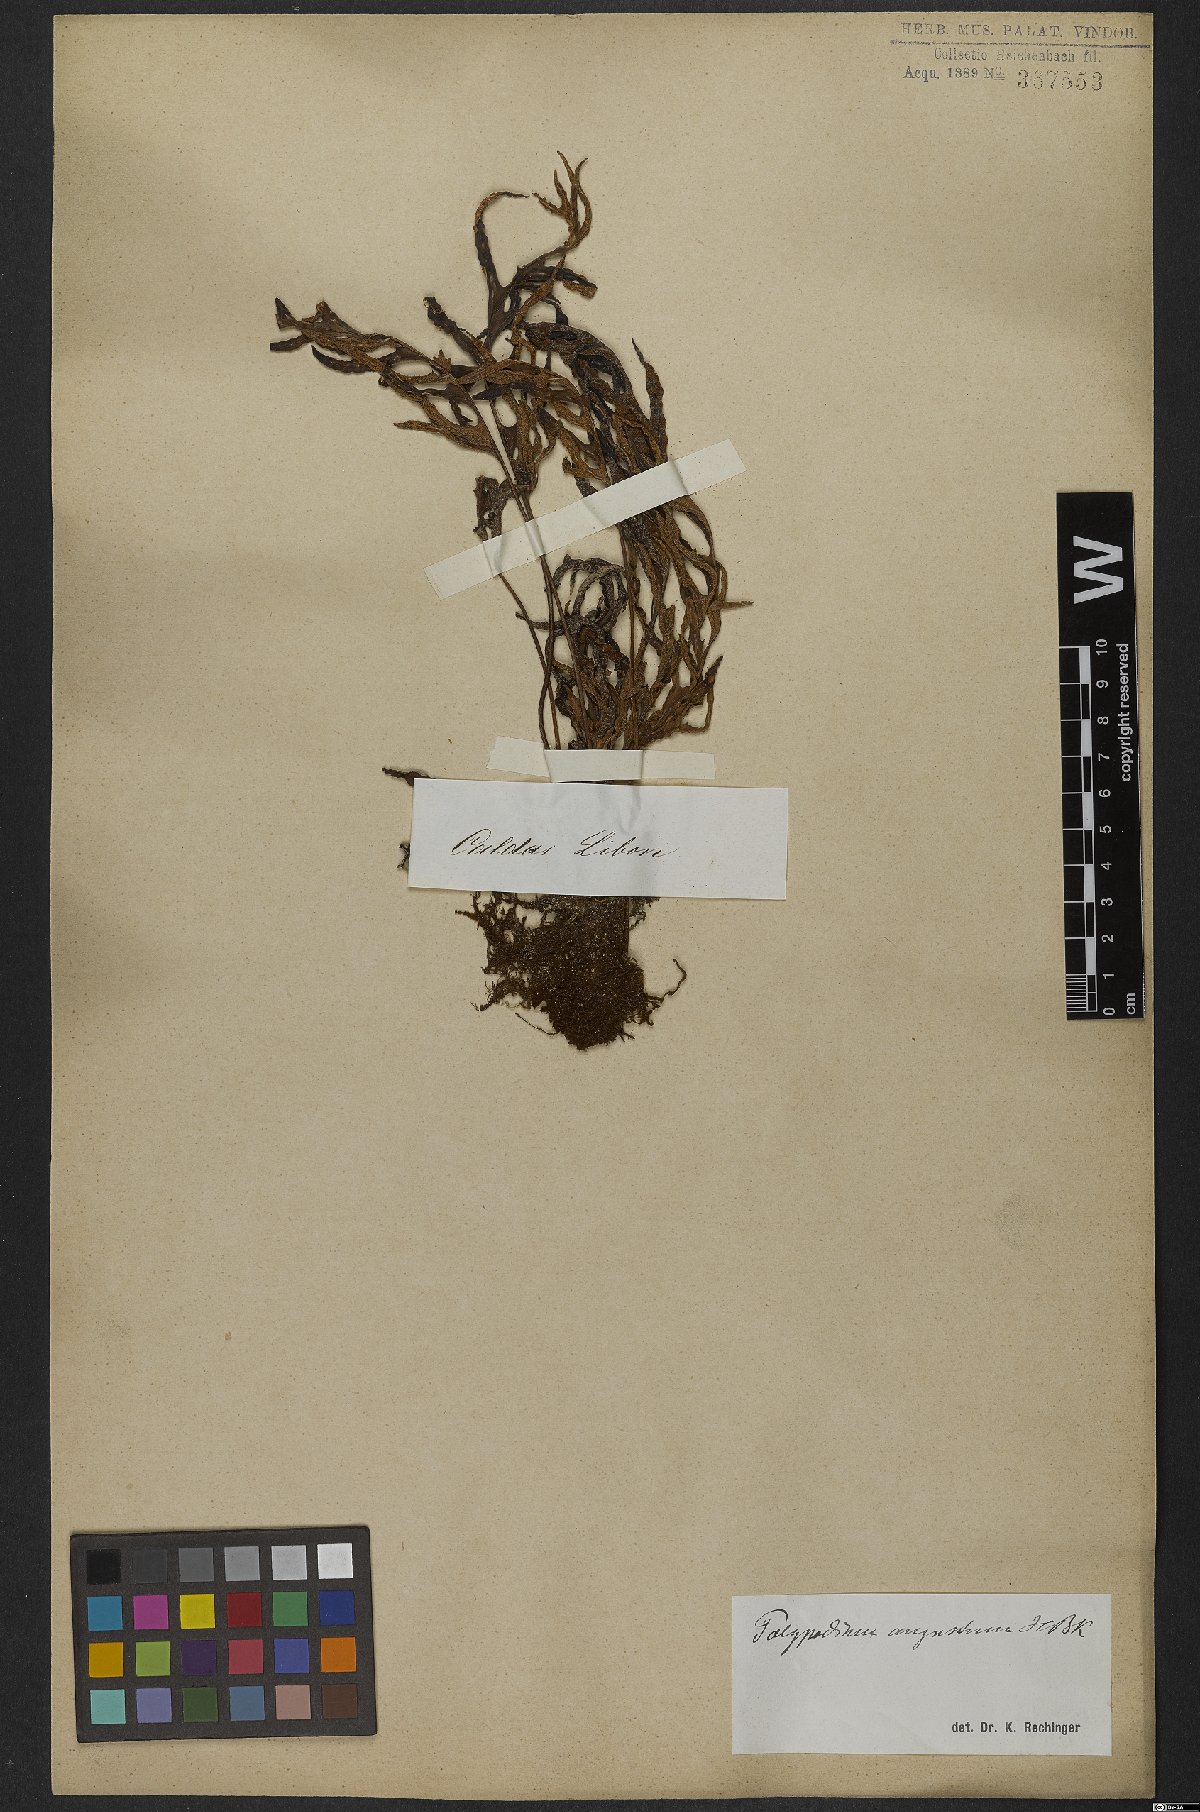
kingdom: Plantae
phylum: Tracheophyta
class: Polypodiopsida
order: Polypodiales
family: Polypodiaceae
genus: Pleopeltis
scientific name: Pleopeltis angusta
